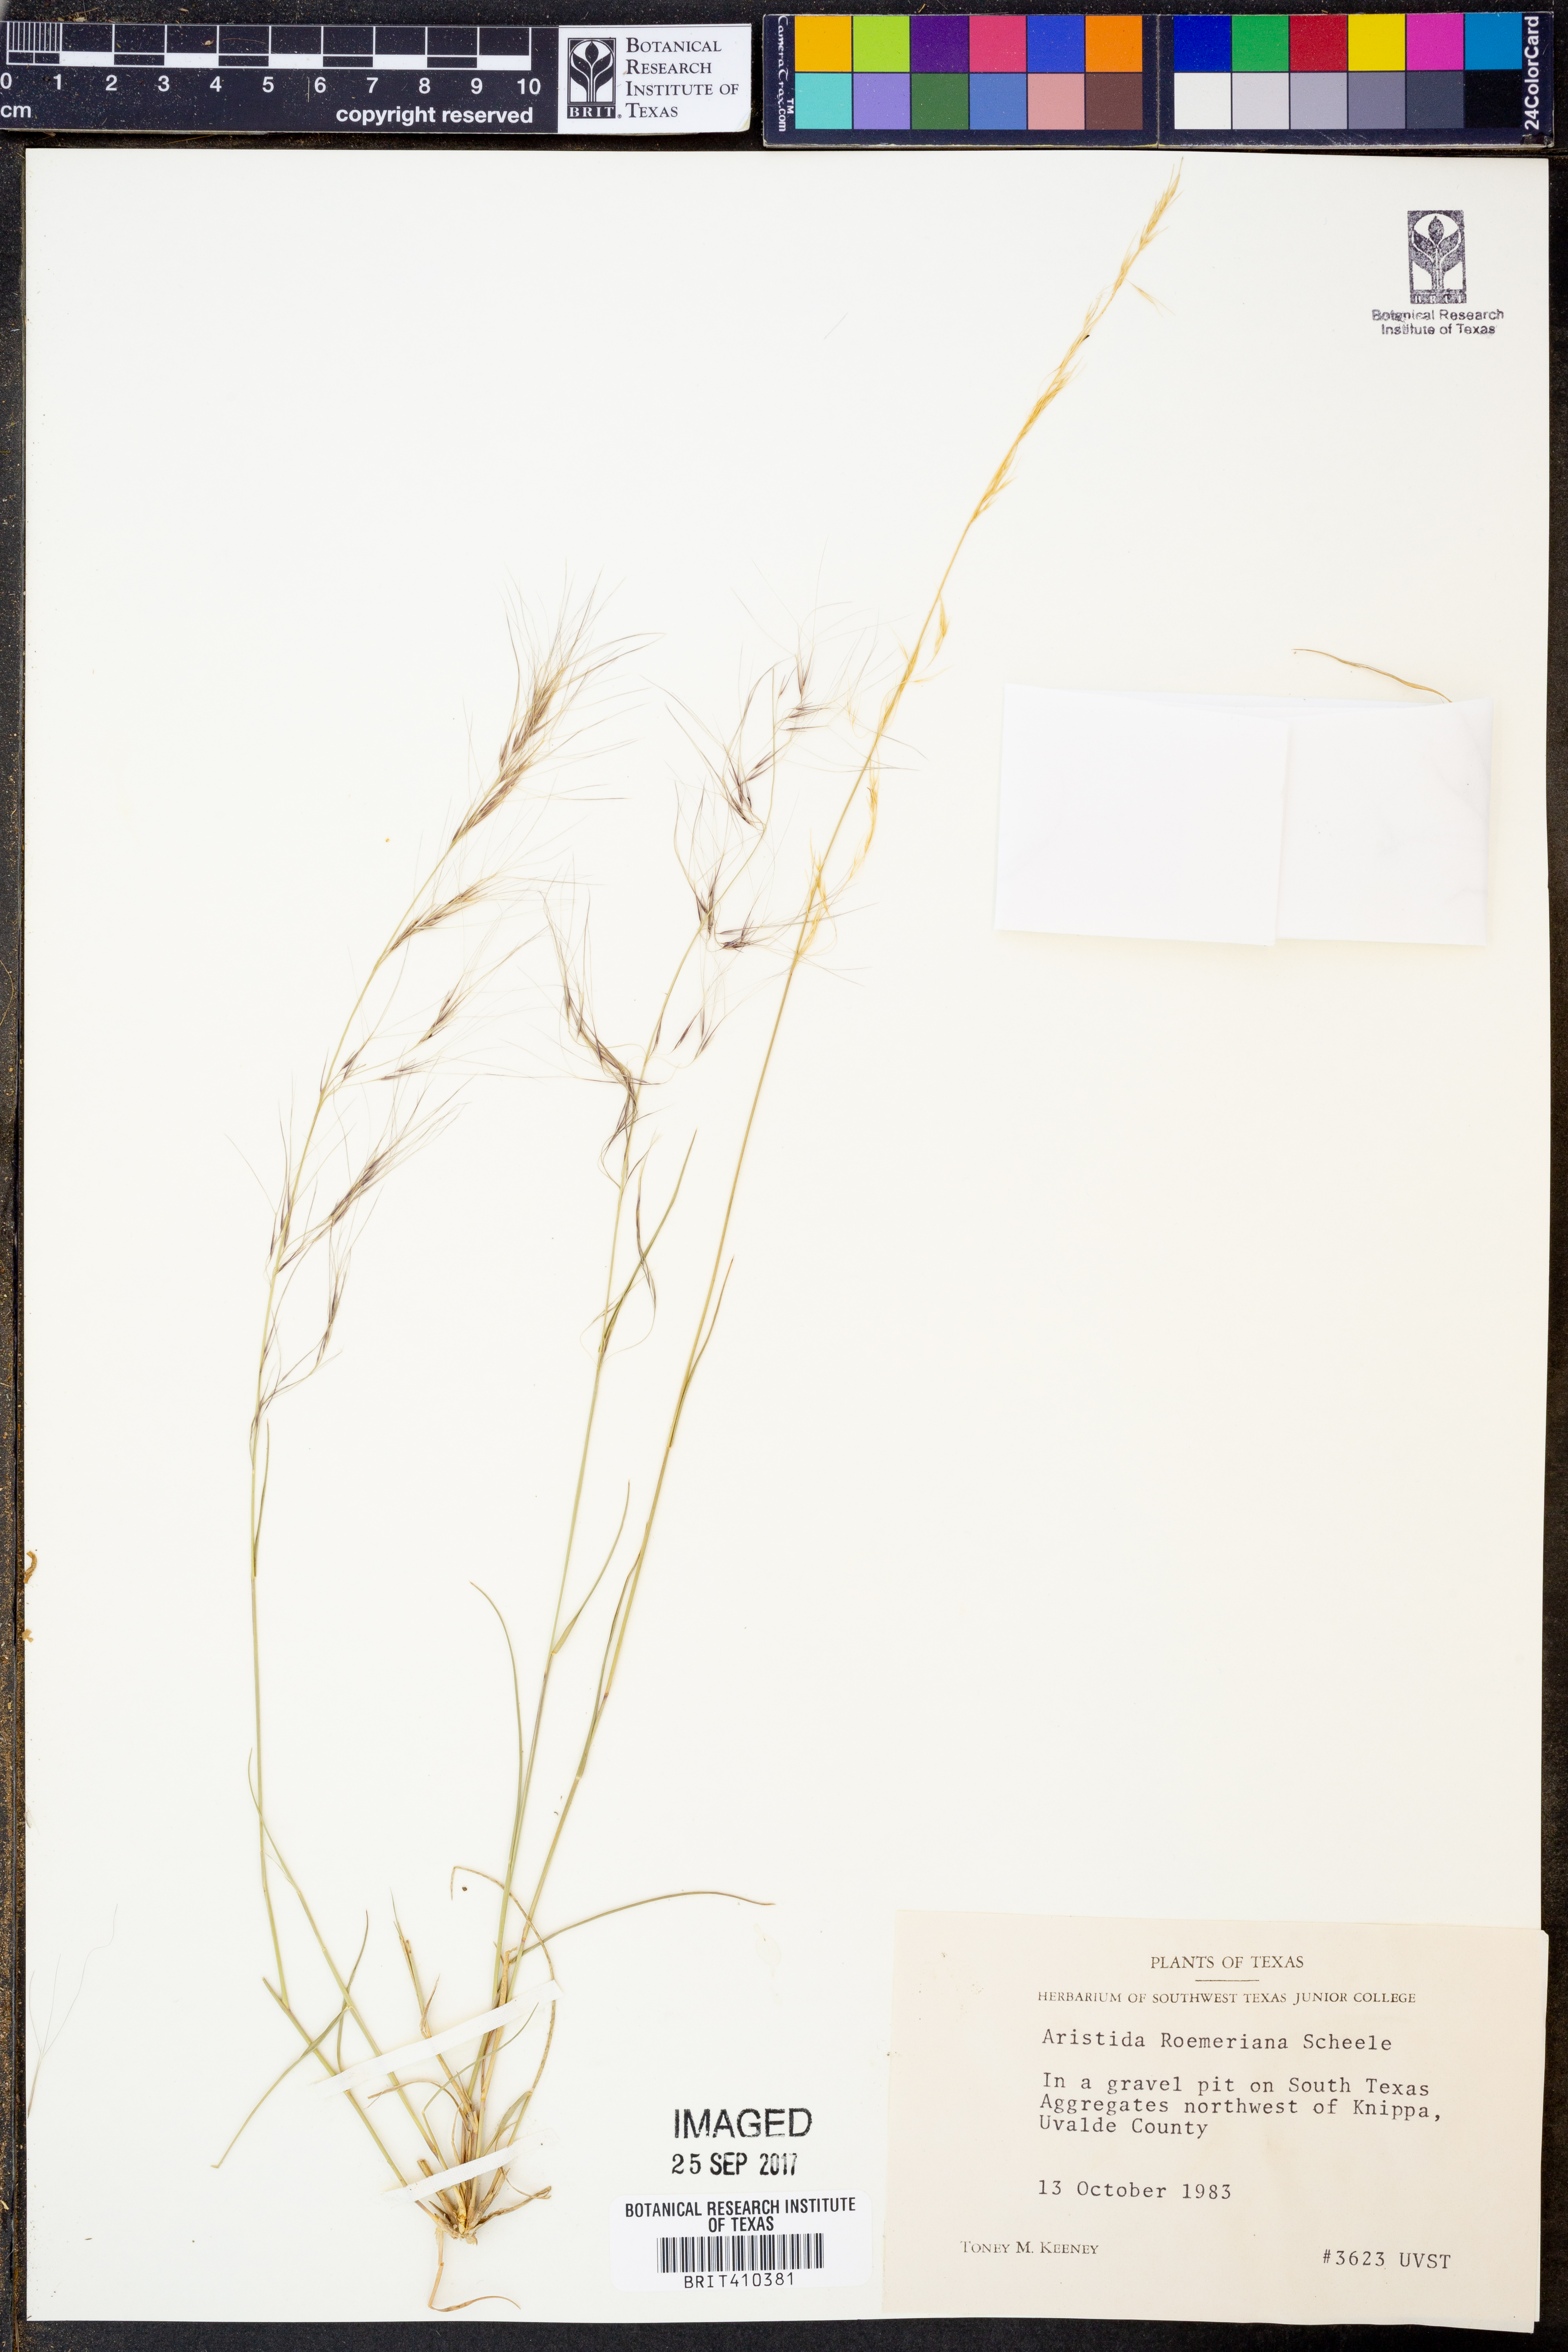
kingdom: Plantae
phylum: Tracheophyta
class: Liliopsida
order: Poales
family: Poaceae
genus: Aristida
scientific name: Aristida purpurea
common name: Purple threeawn
